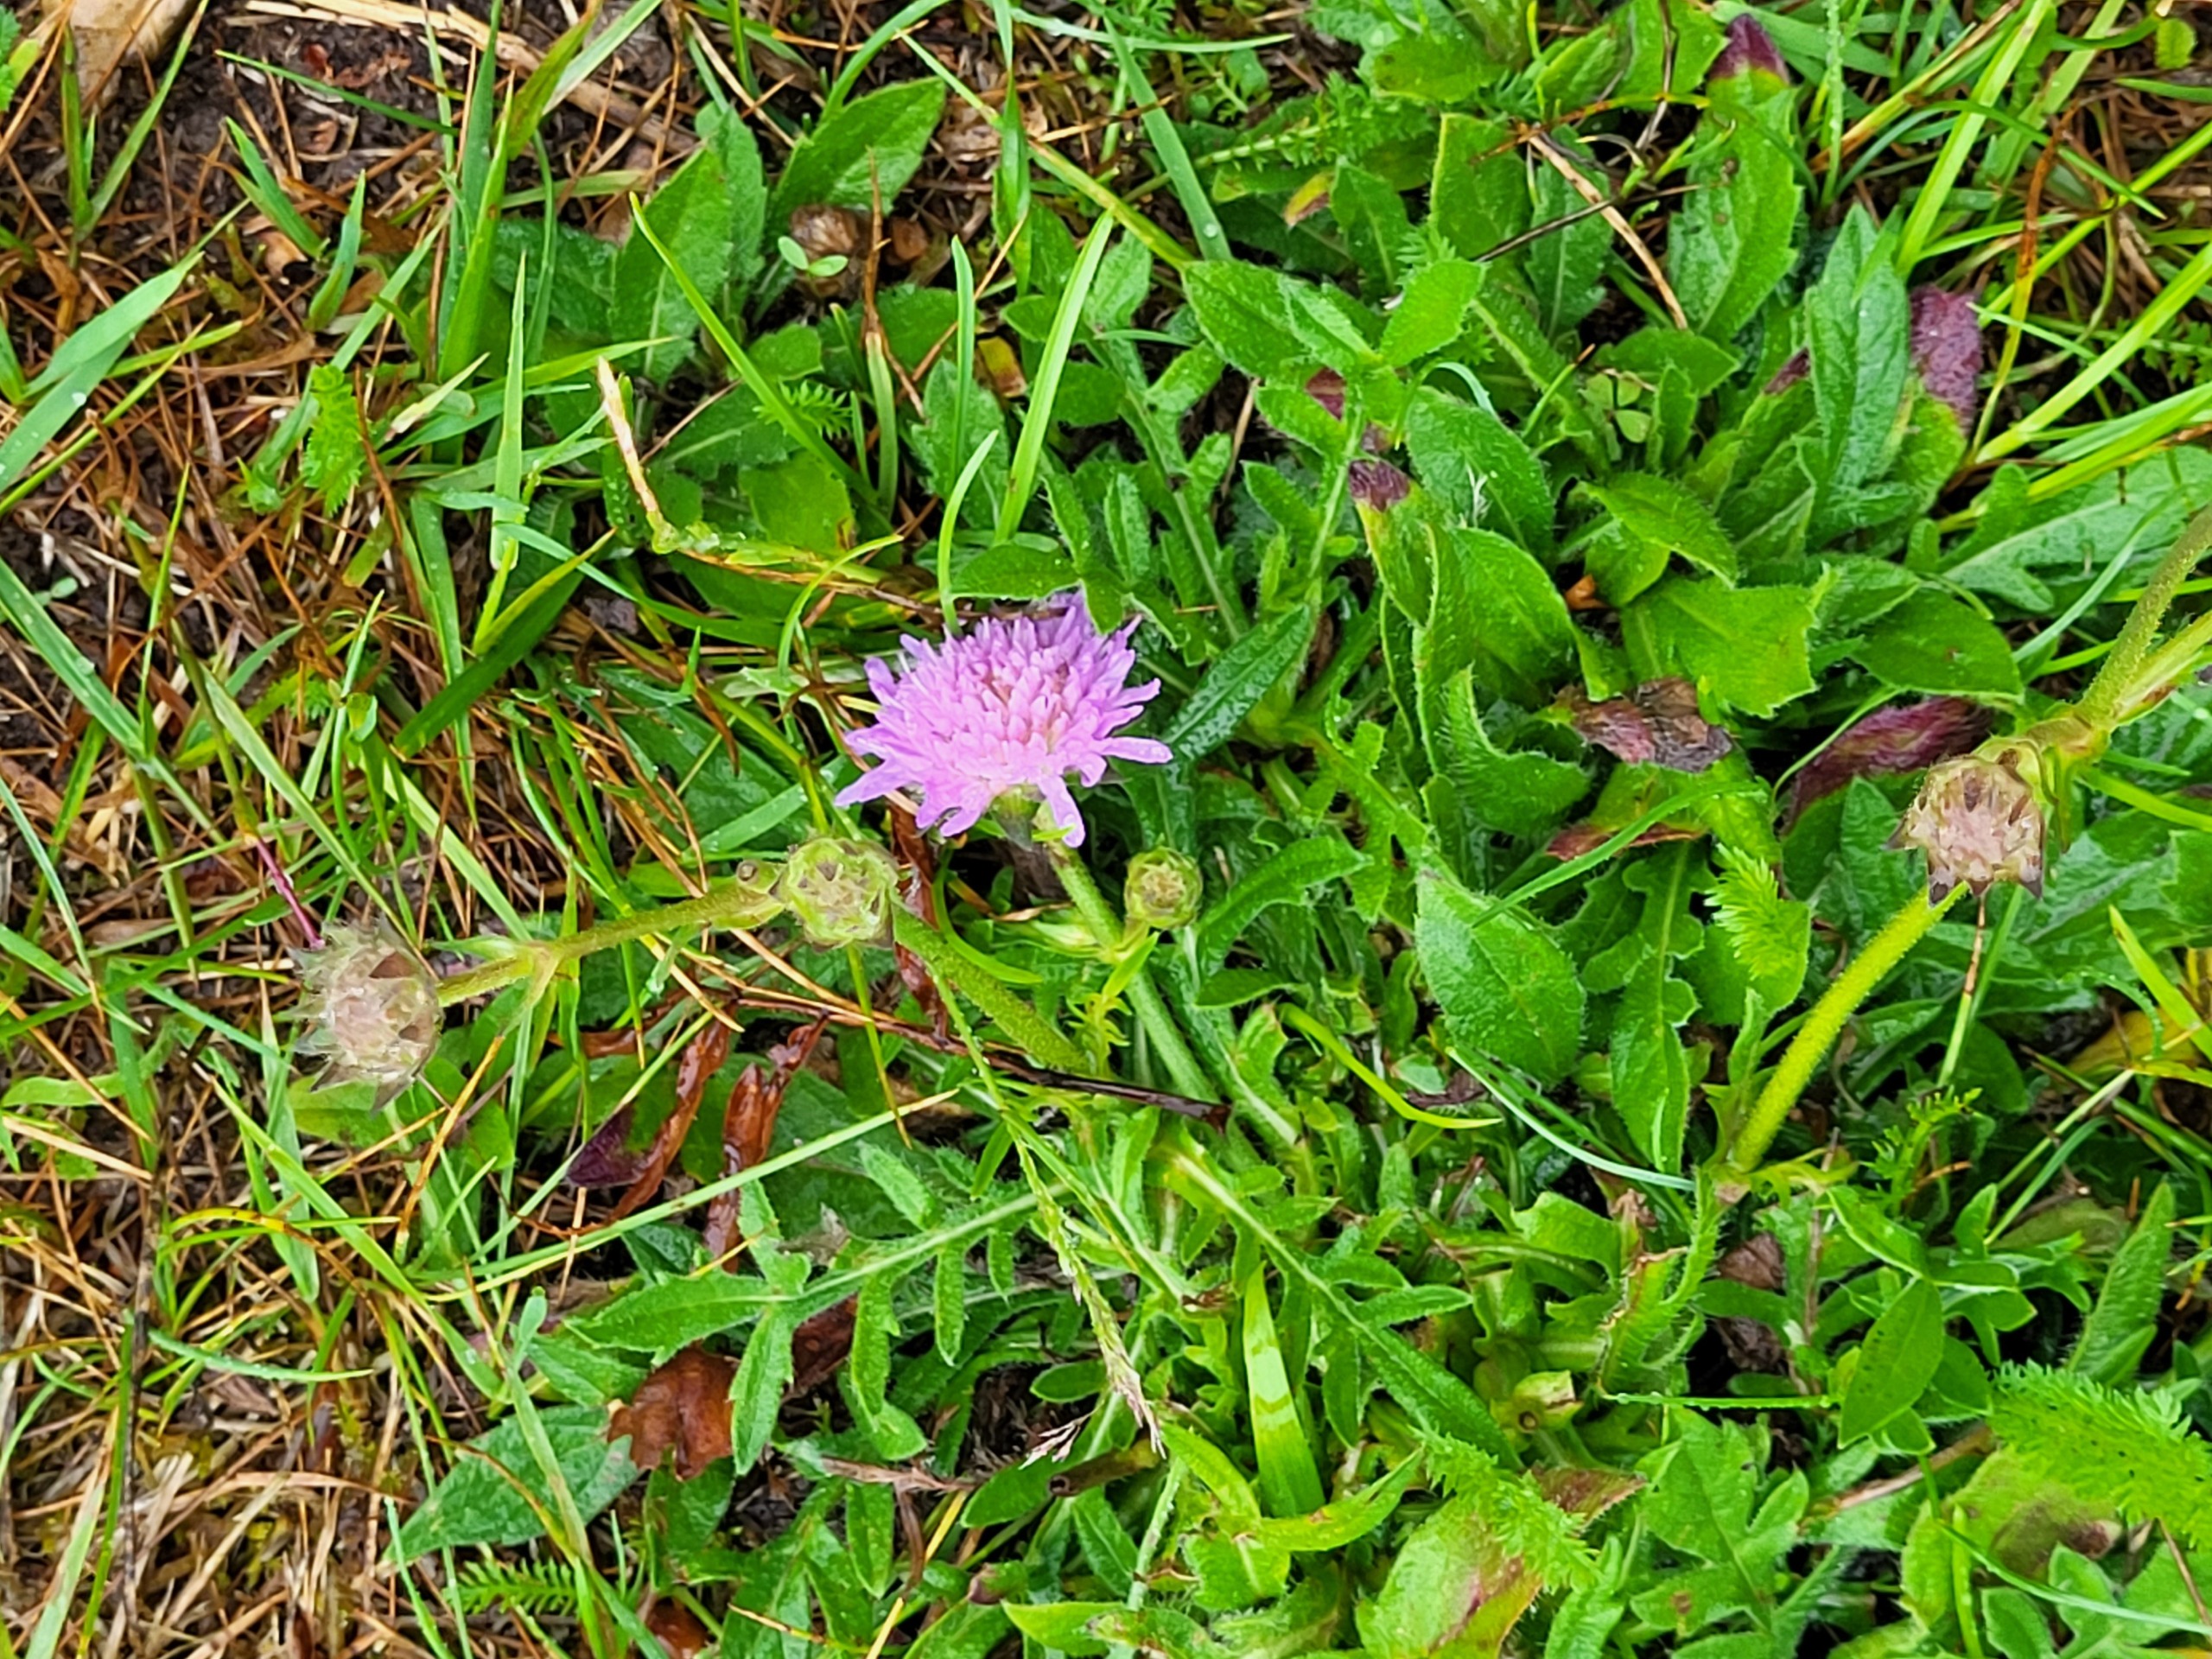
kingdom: Plantae
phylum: Tracheophyta
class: Magnoliopsida
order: Dipsacales
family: Caprifoliaceae
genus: Knautia
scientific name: Knautia arvensis
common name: Blåhat
